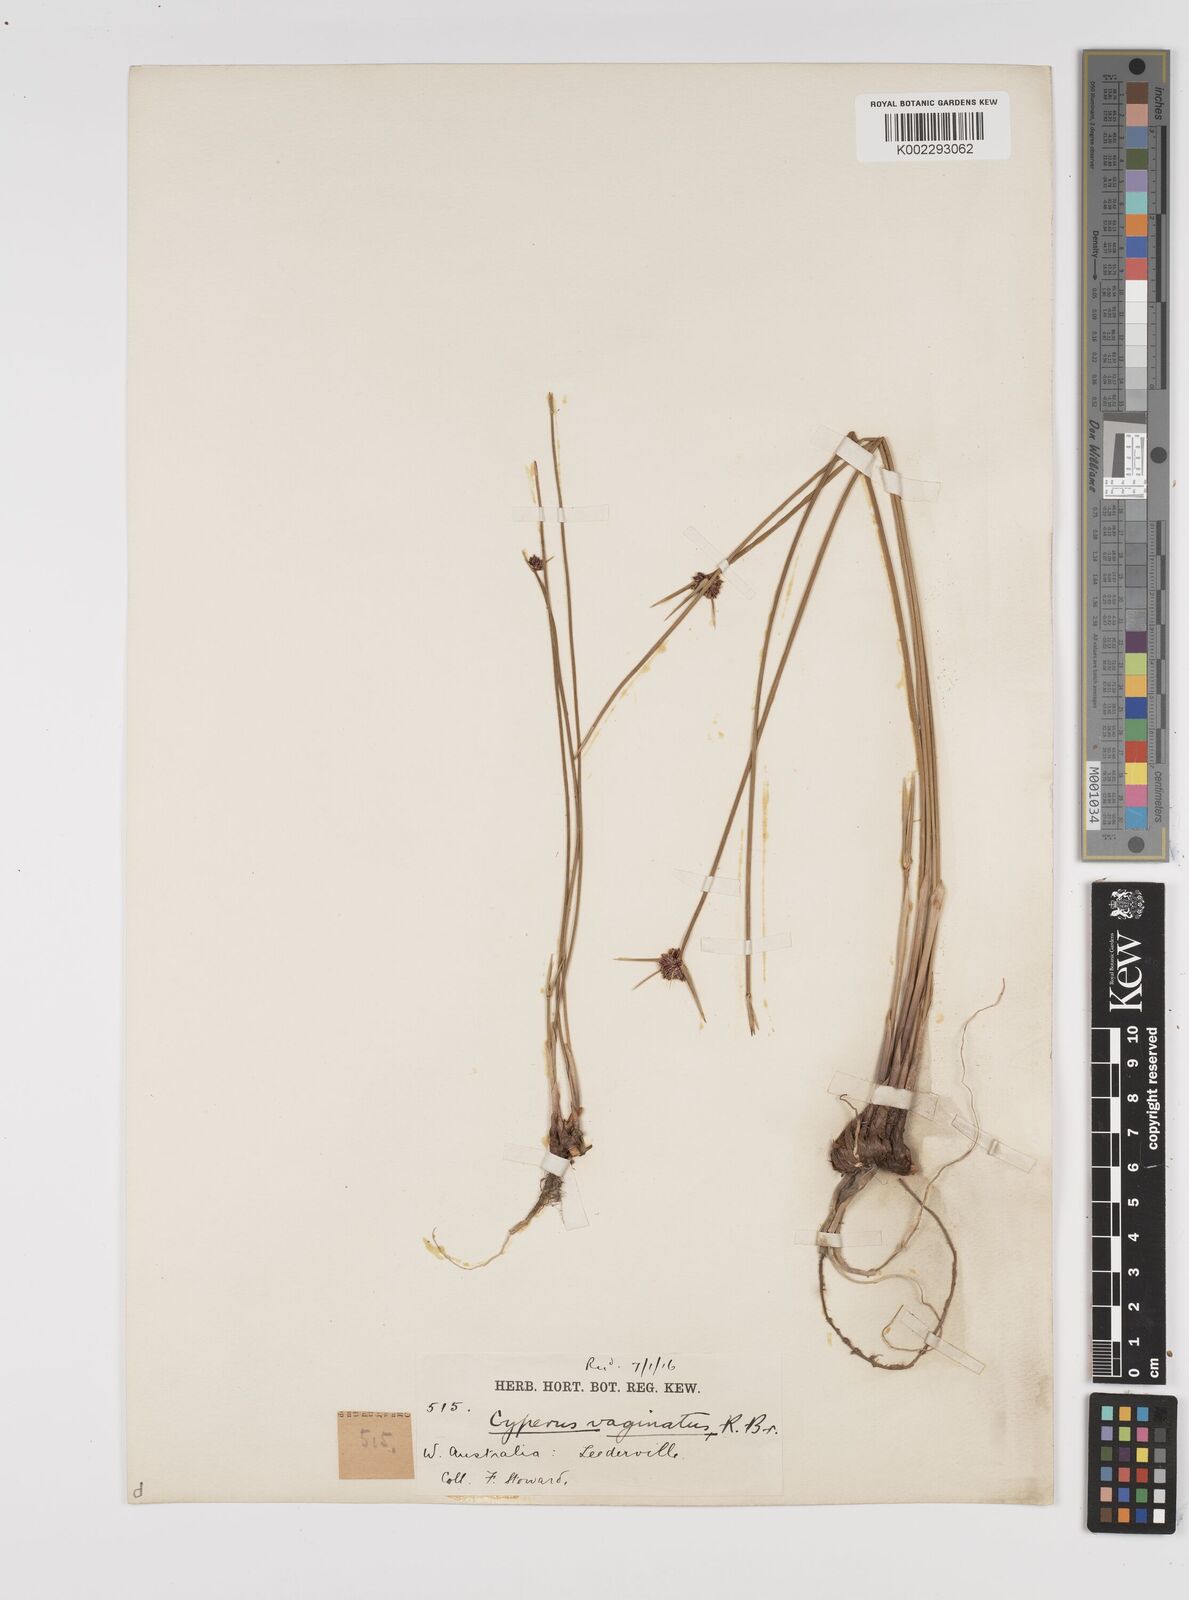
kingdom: Plantae
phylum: Tracheophyta
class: Liliopsida
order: Poales
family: Cyperaceae
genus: Cyperus
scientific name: Cyperus vaginatus
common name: Stiff-leaved flat-sedge
